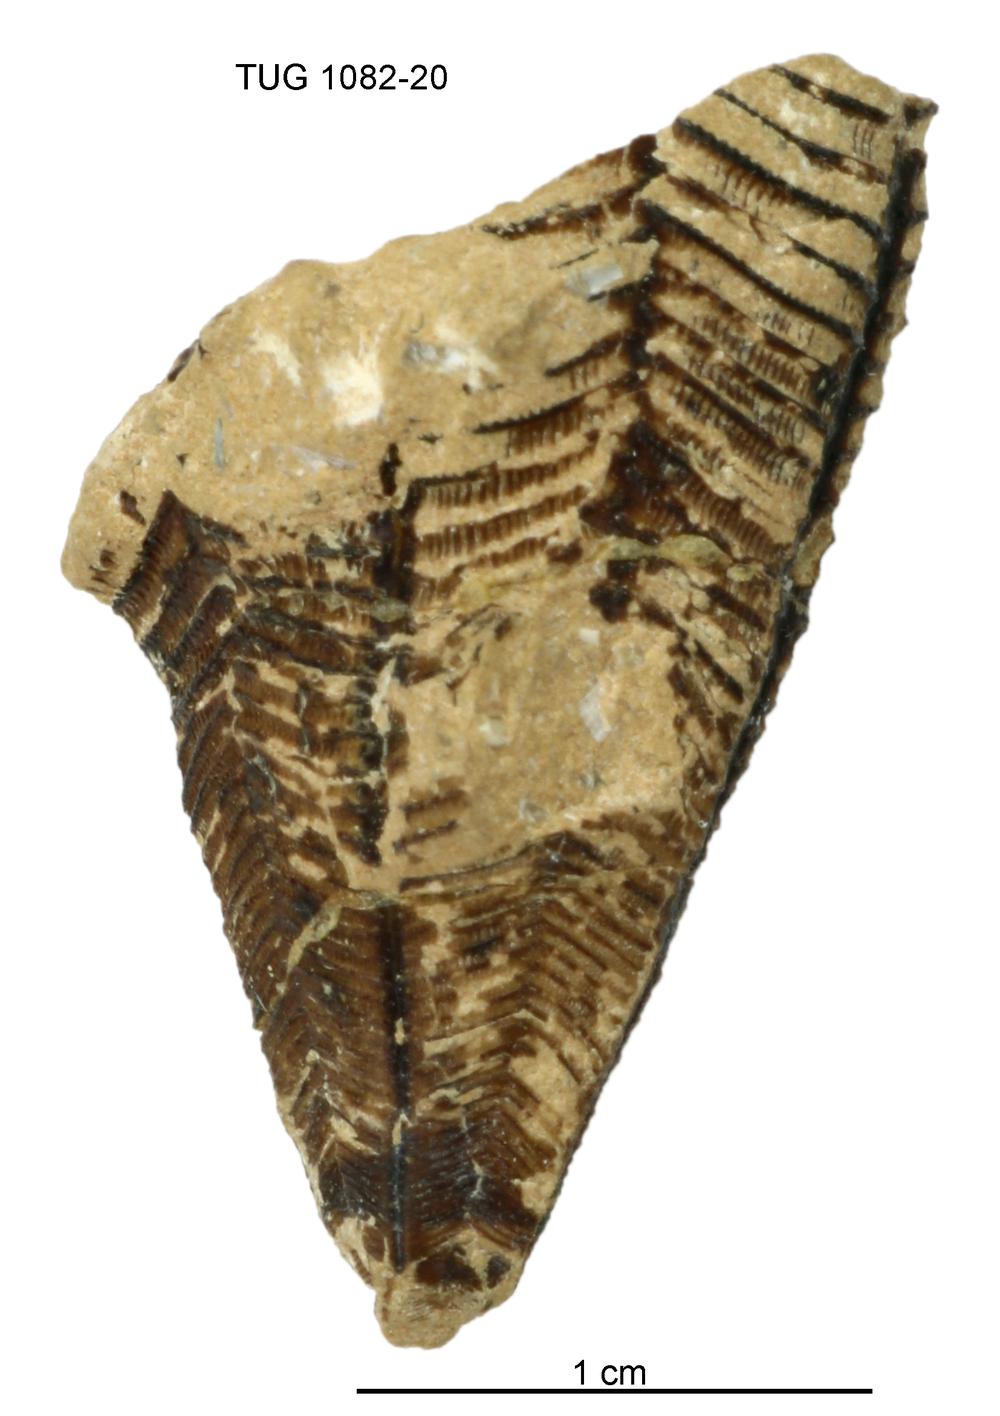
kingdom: Animalia
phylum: Cnidaria
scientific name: Cnidaria
